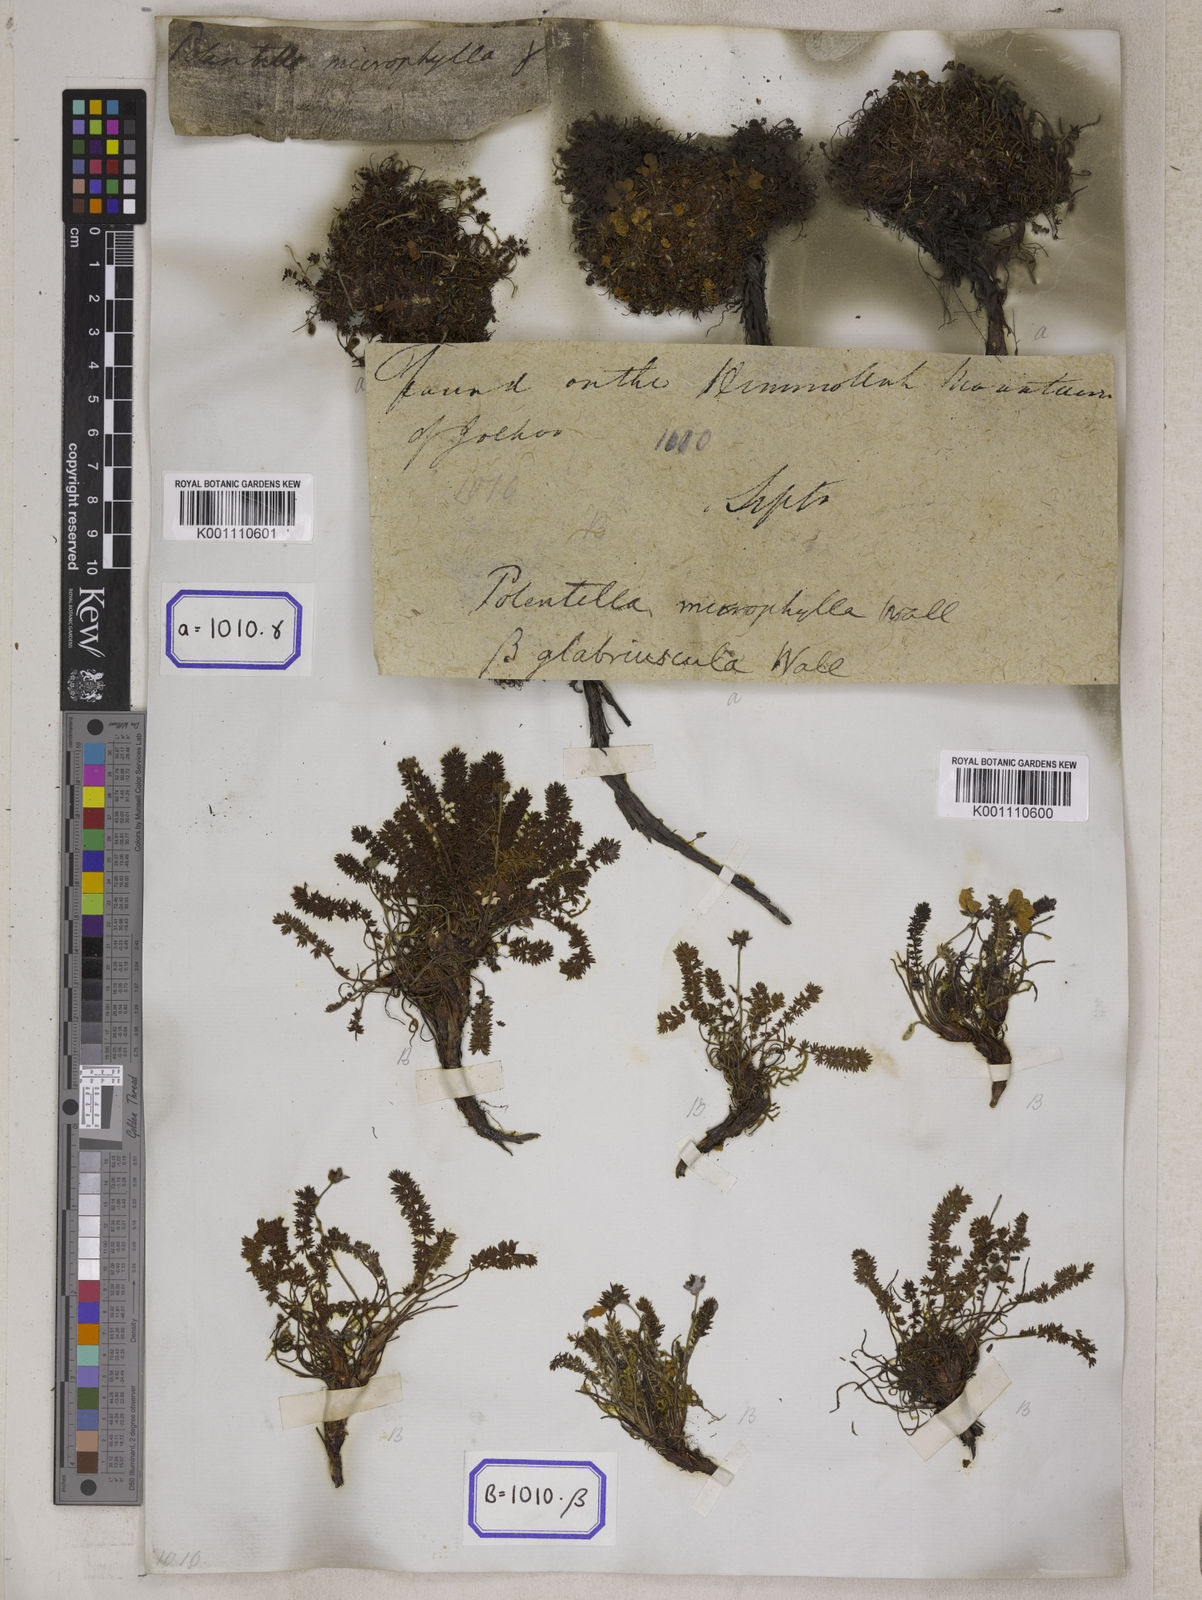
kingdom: Plantae
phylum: Tracheophyta
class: Magnoliopsida
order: Rosales
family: Rosaceae
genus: Potentilla
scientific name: Potentilla
